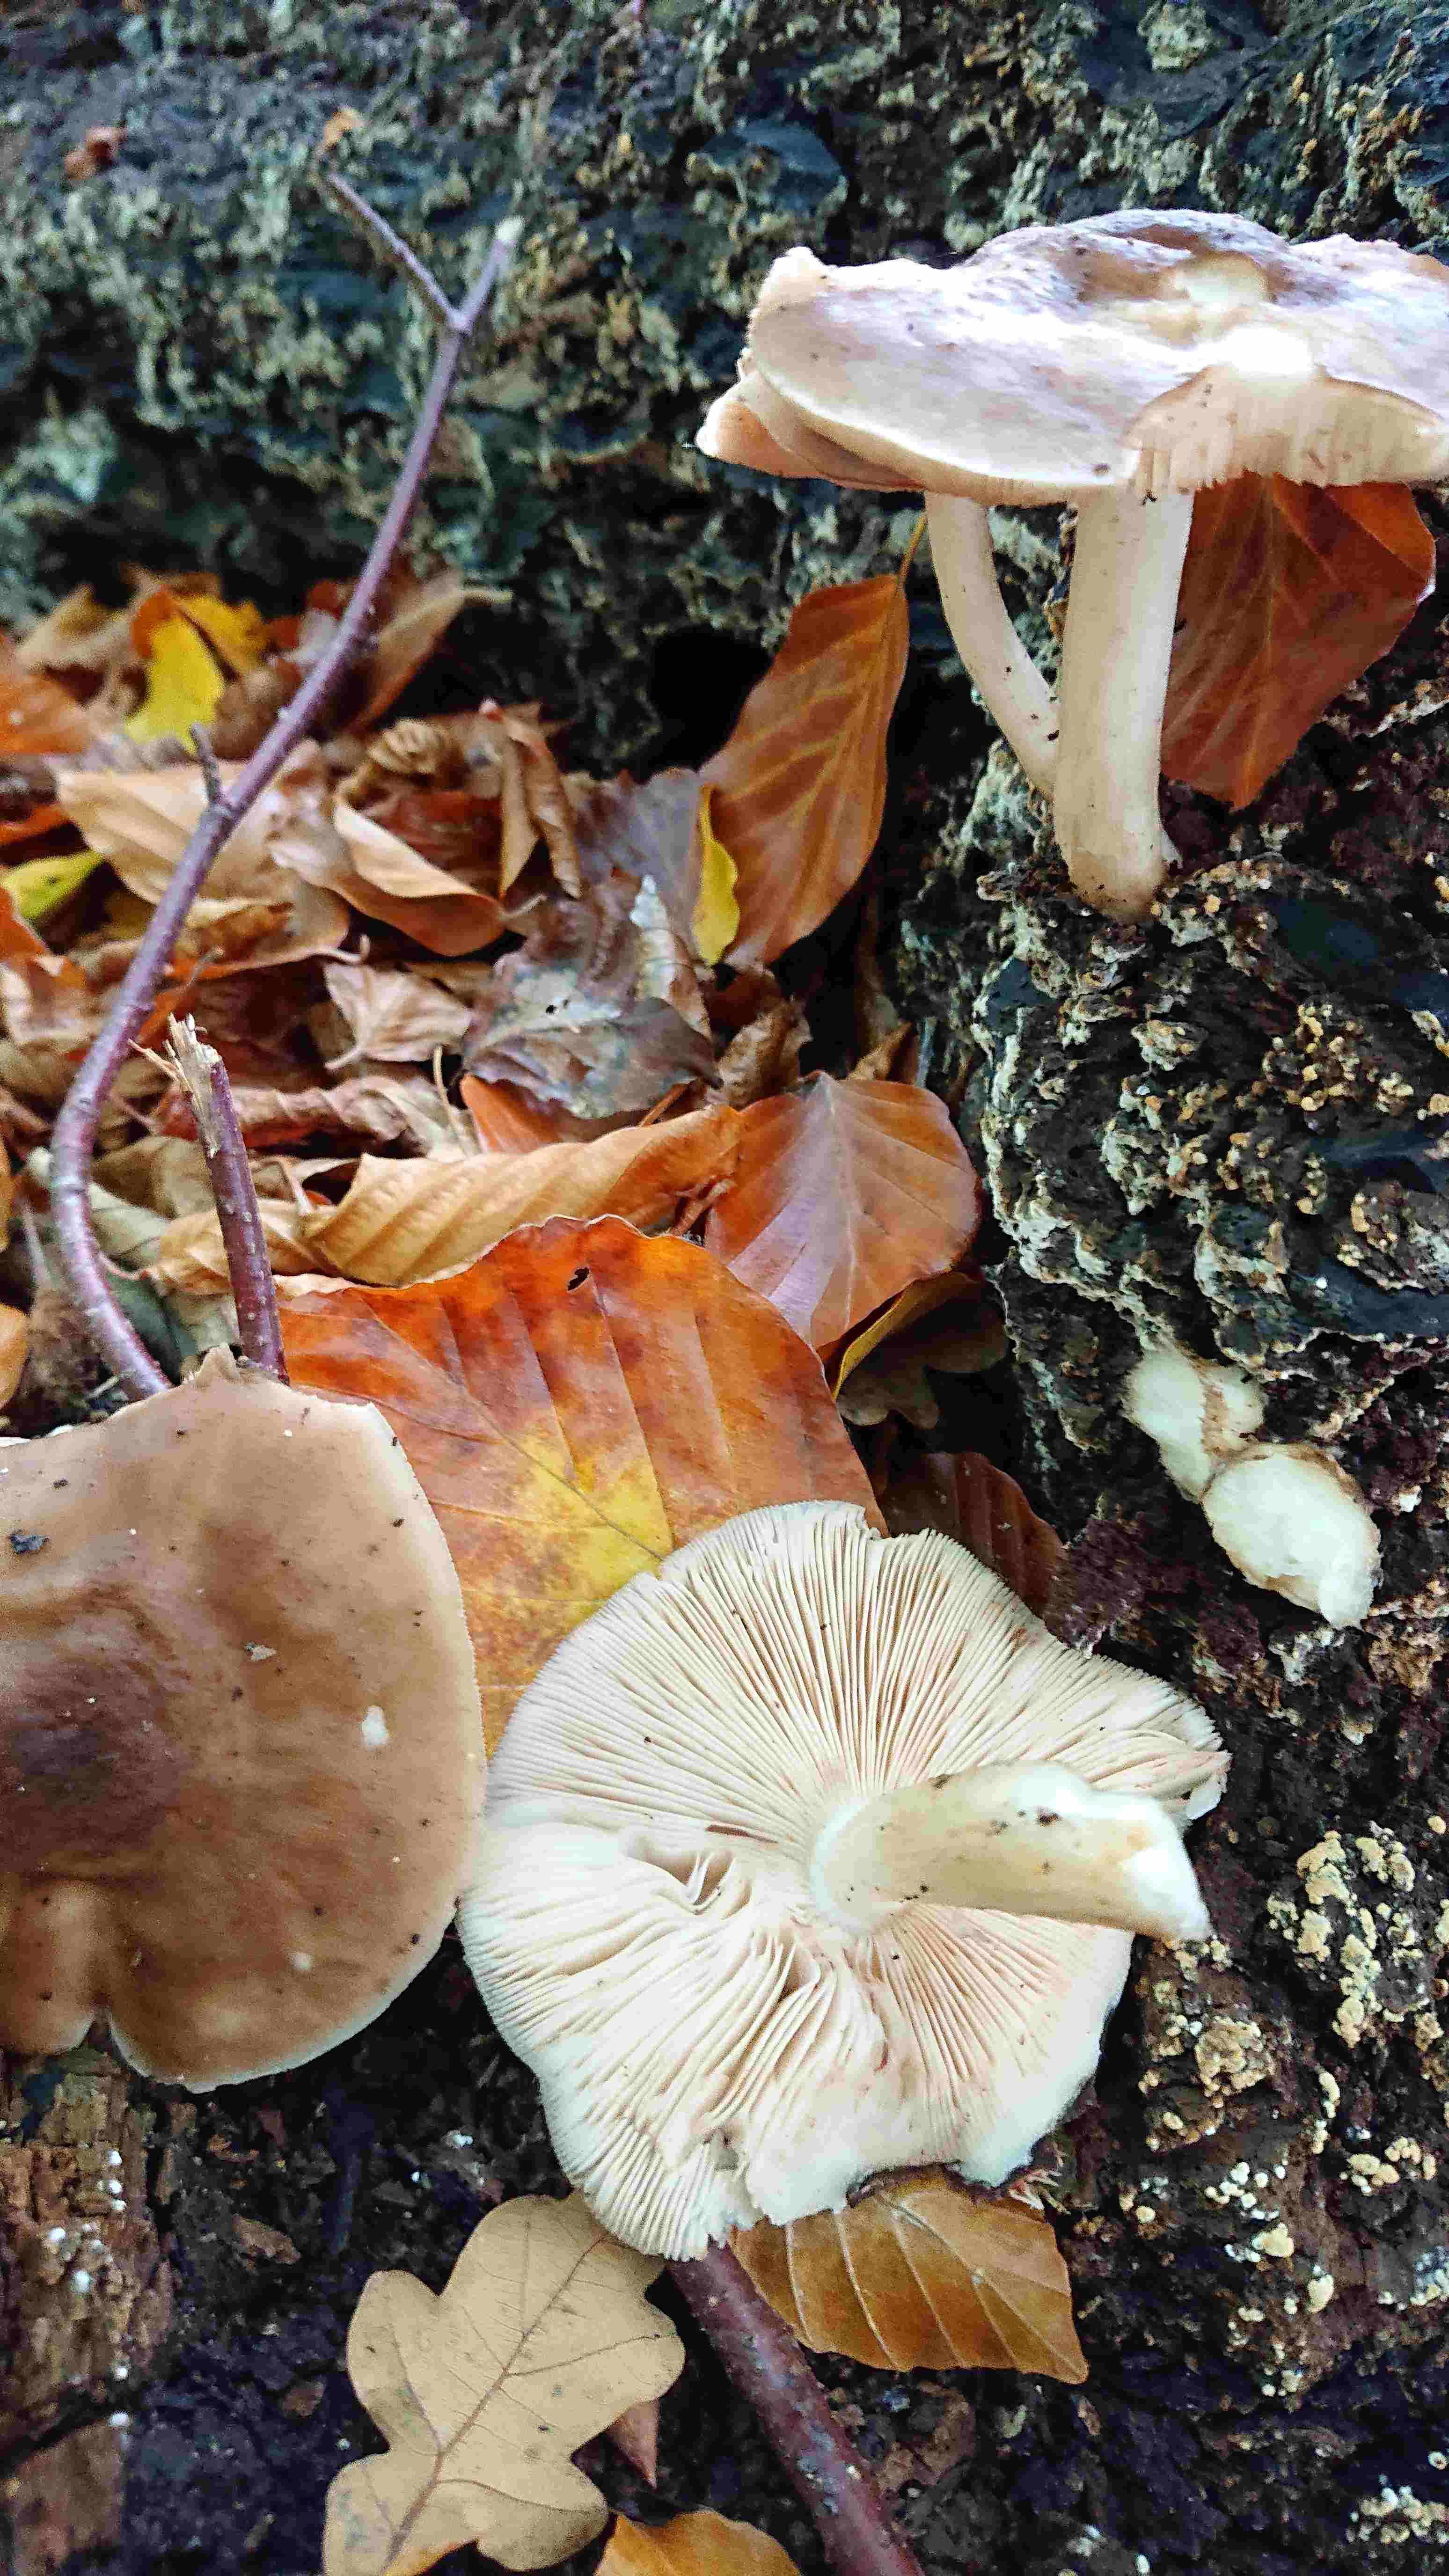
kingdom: Fungi
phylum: Basidiomycota
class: Agaricomycetes
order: Agaricales
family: Pluteaceae
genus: Pluteus
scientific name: Pluteus cervinus
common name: sodfarvet skærmhat
